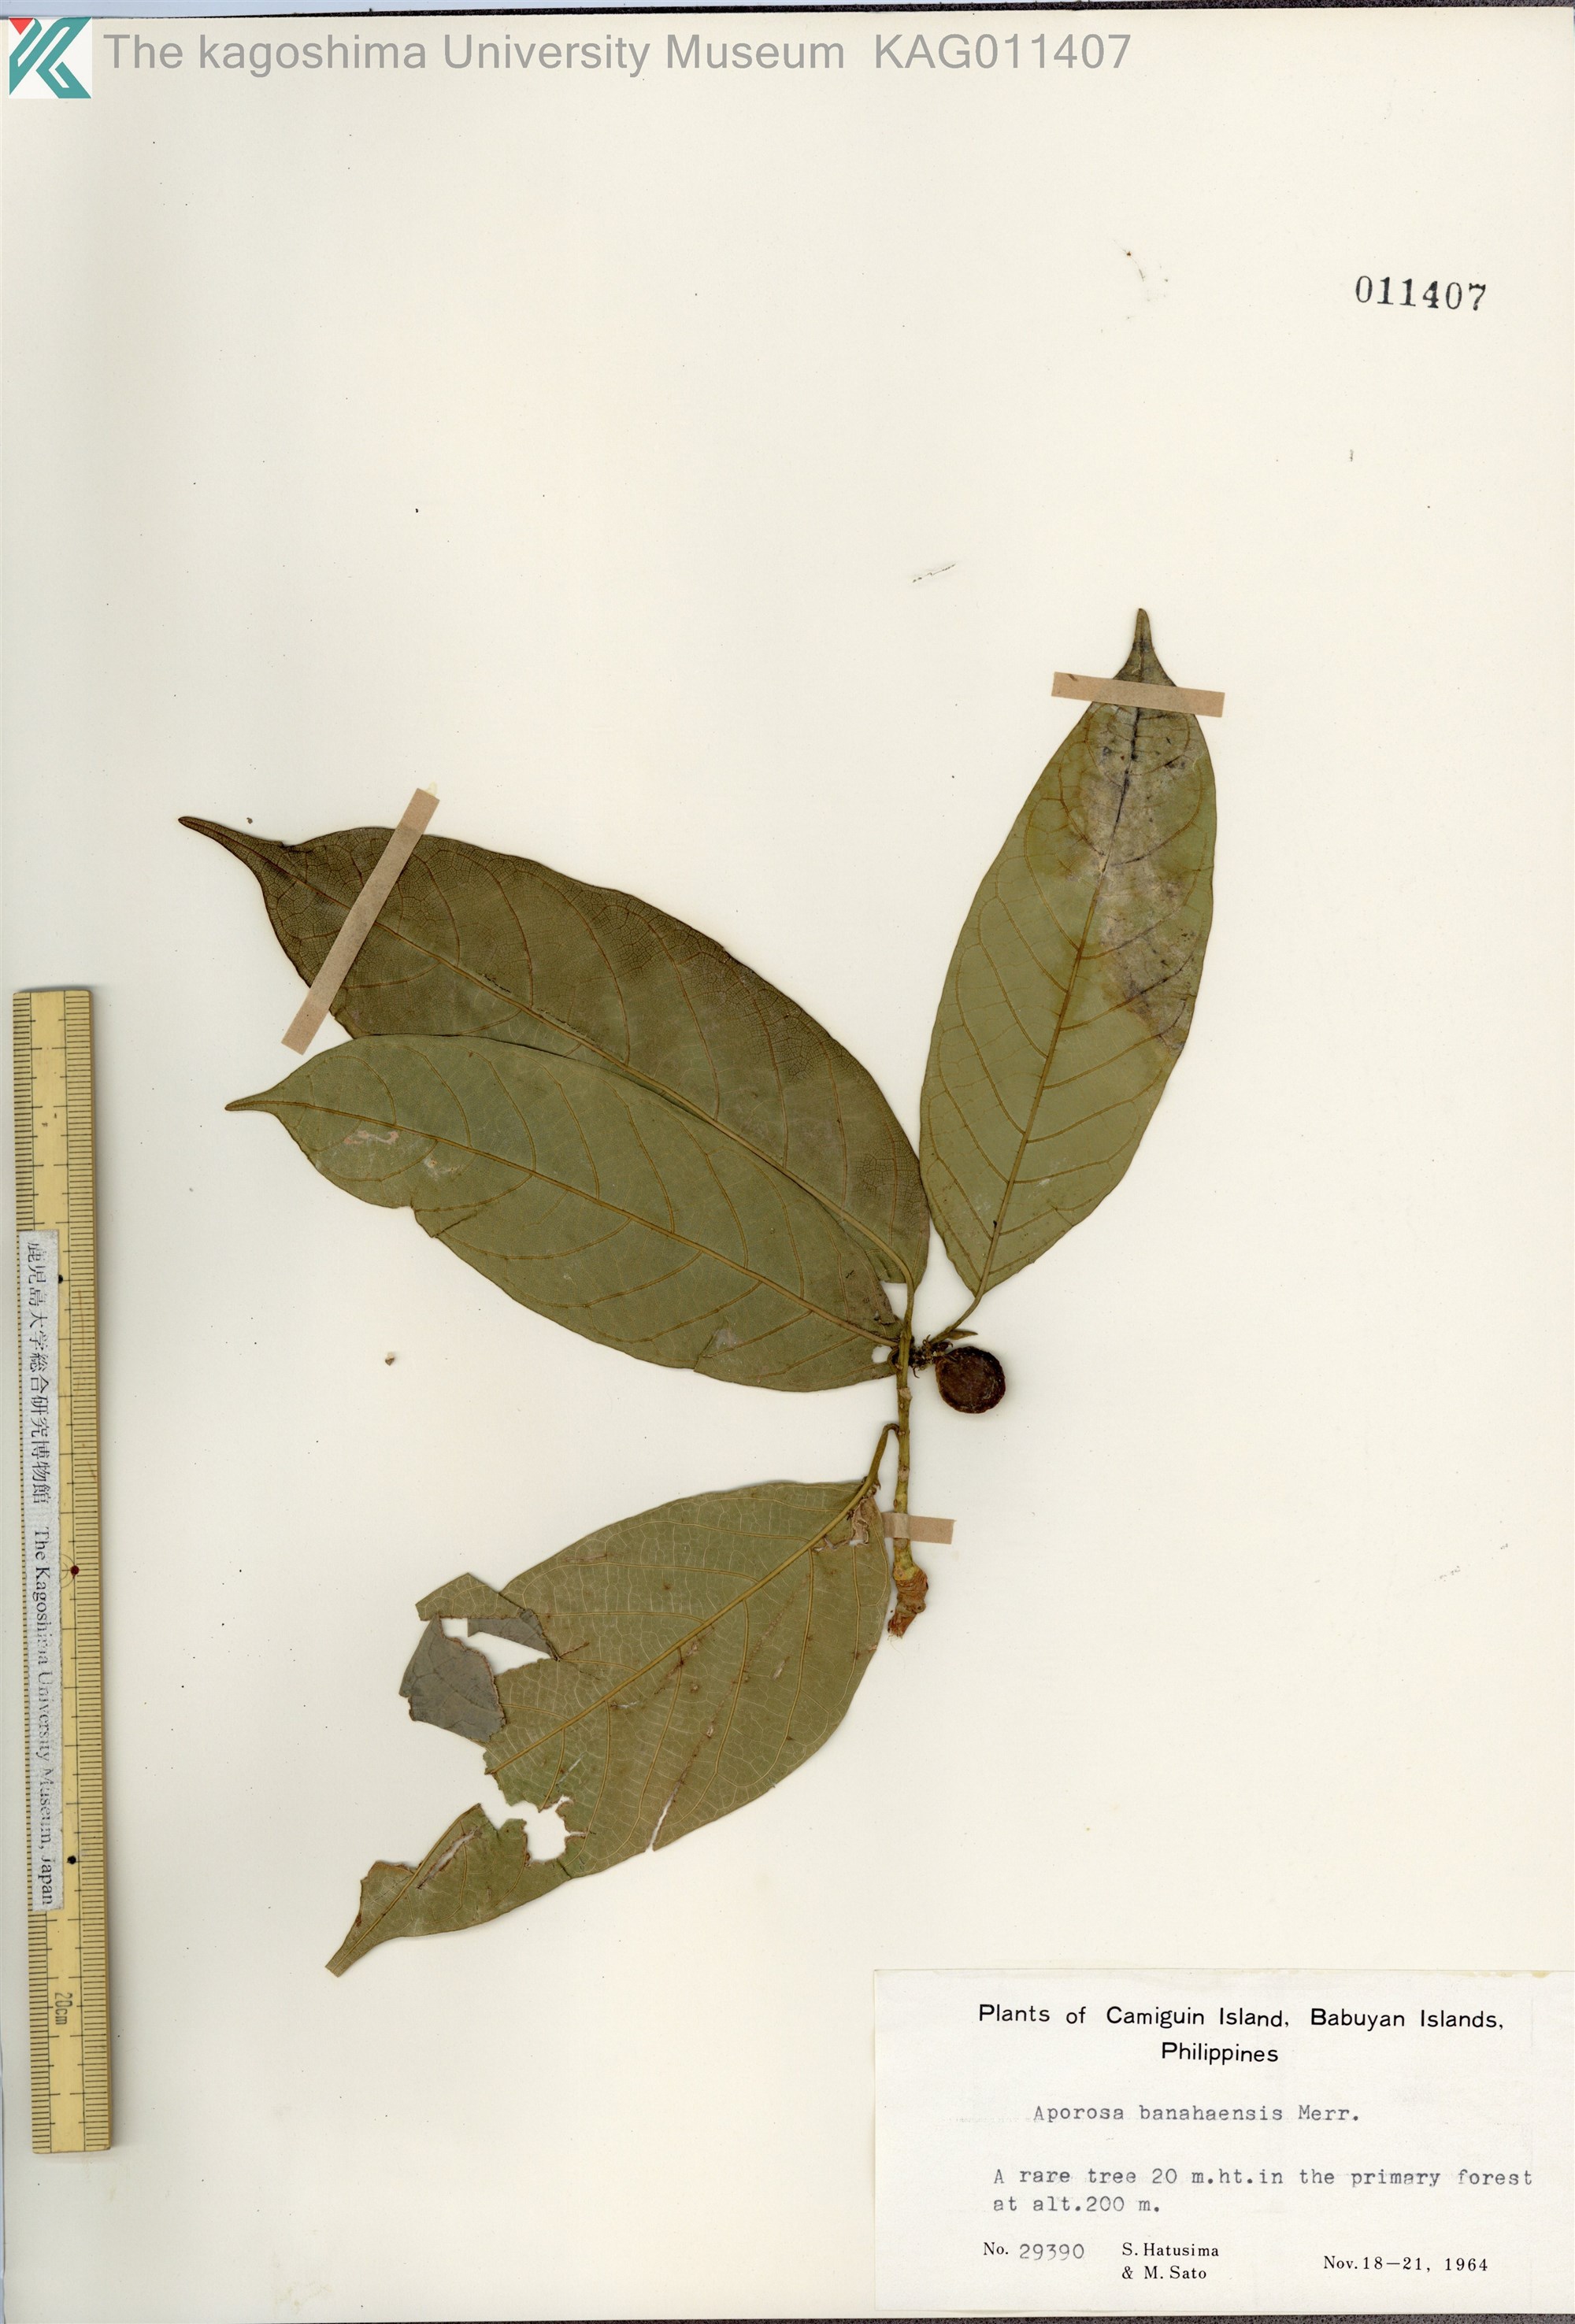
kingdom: Plantae
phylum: Tracheophyta
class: Magnoliopsida
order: Malpighiales
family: Phyllanthaceae
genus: Aporosa
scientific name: Aporosa banahaensis
